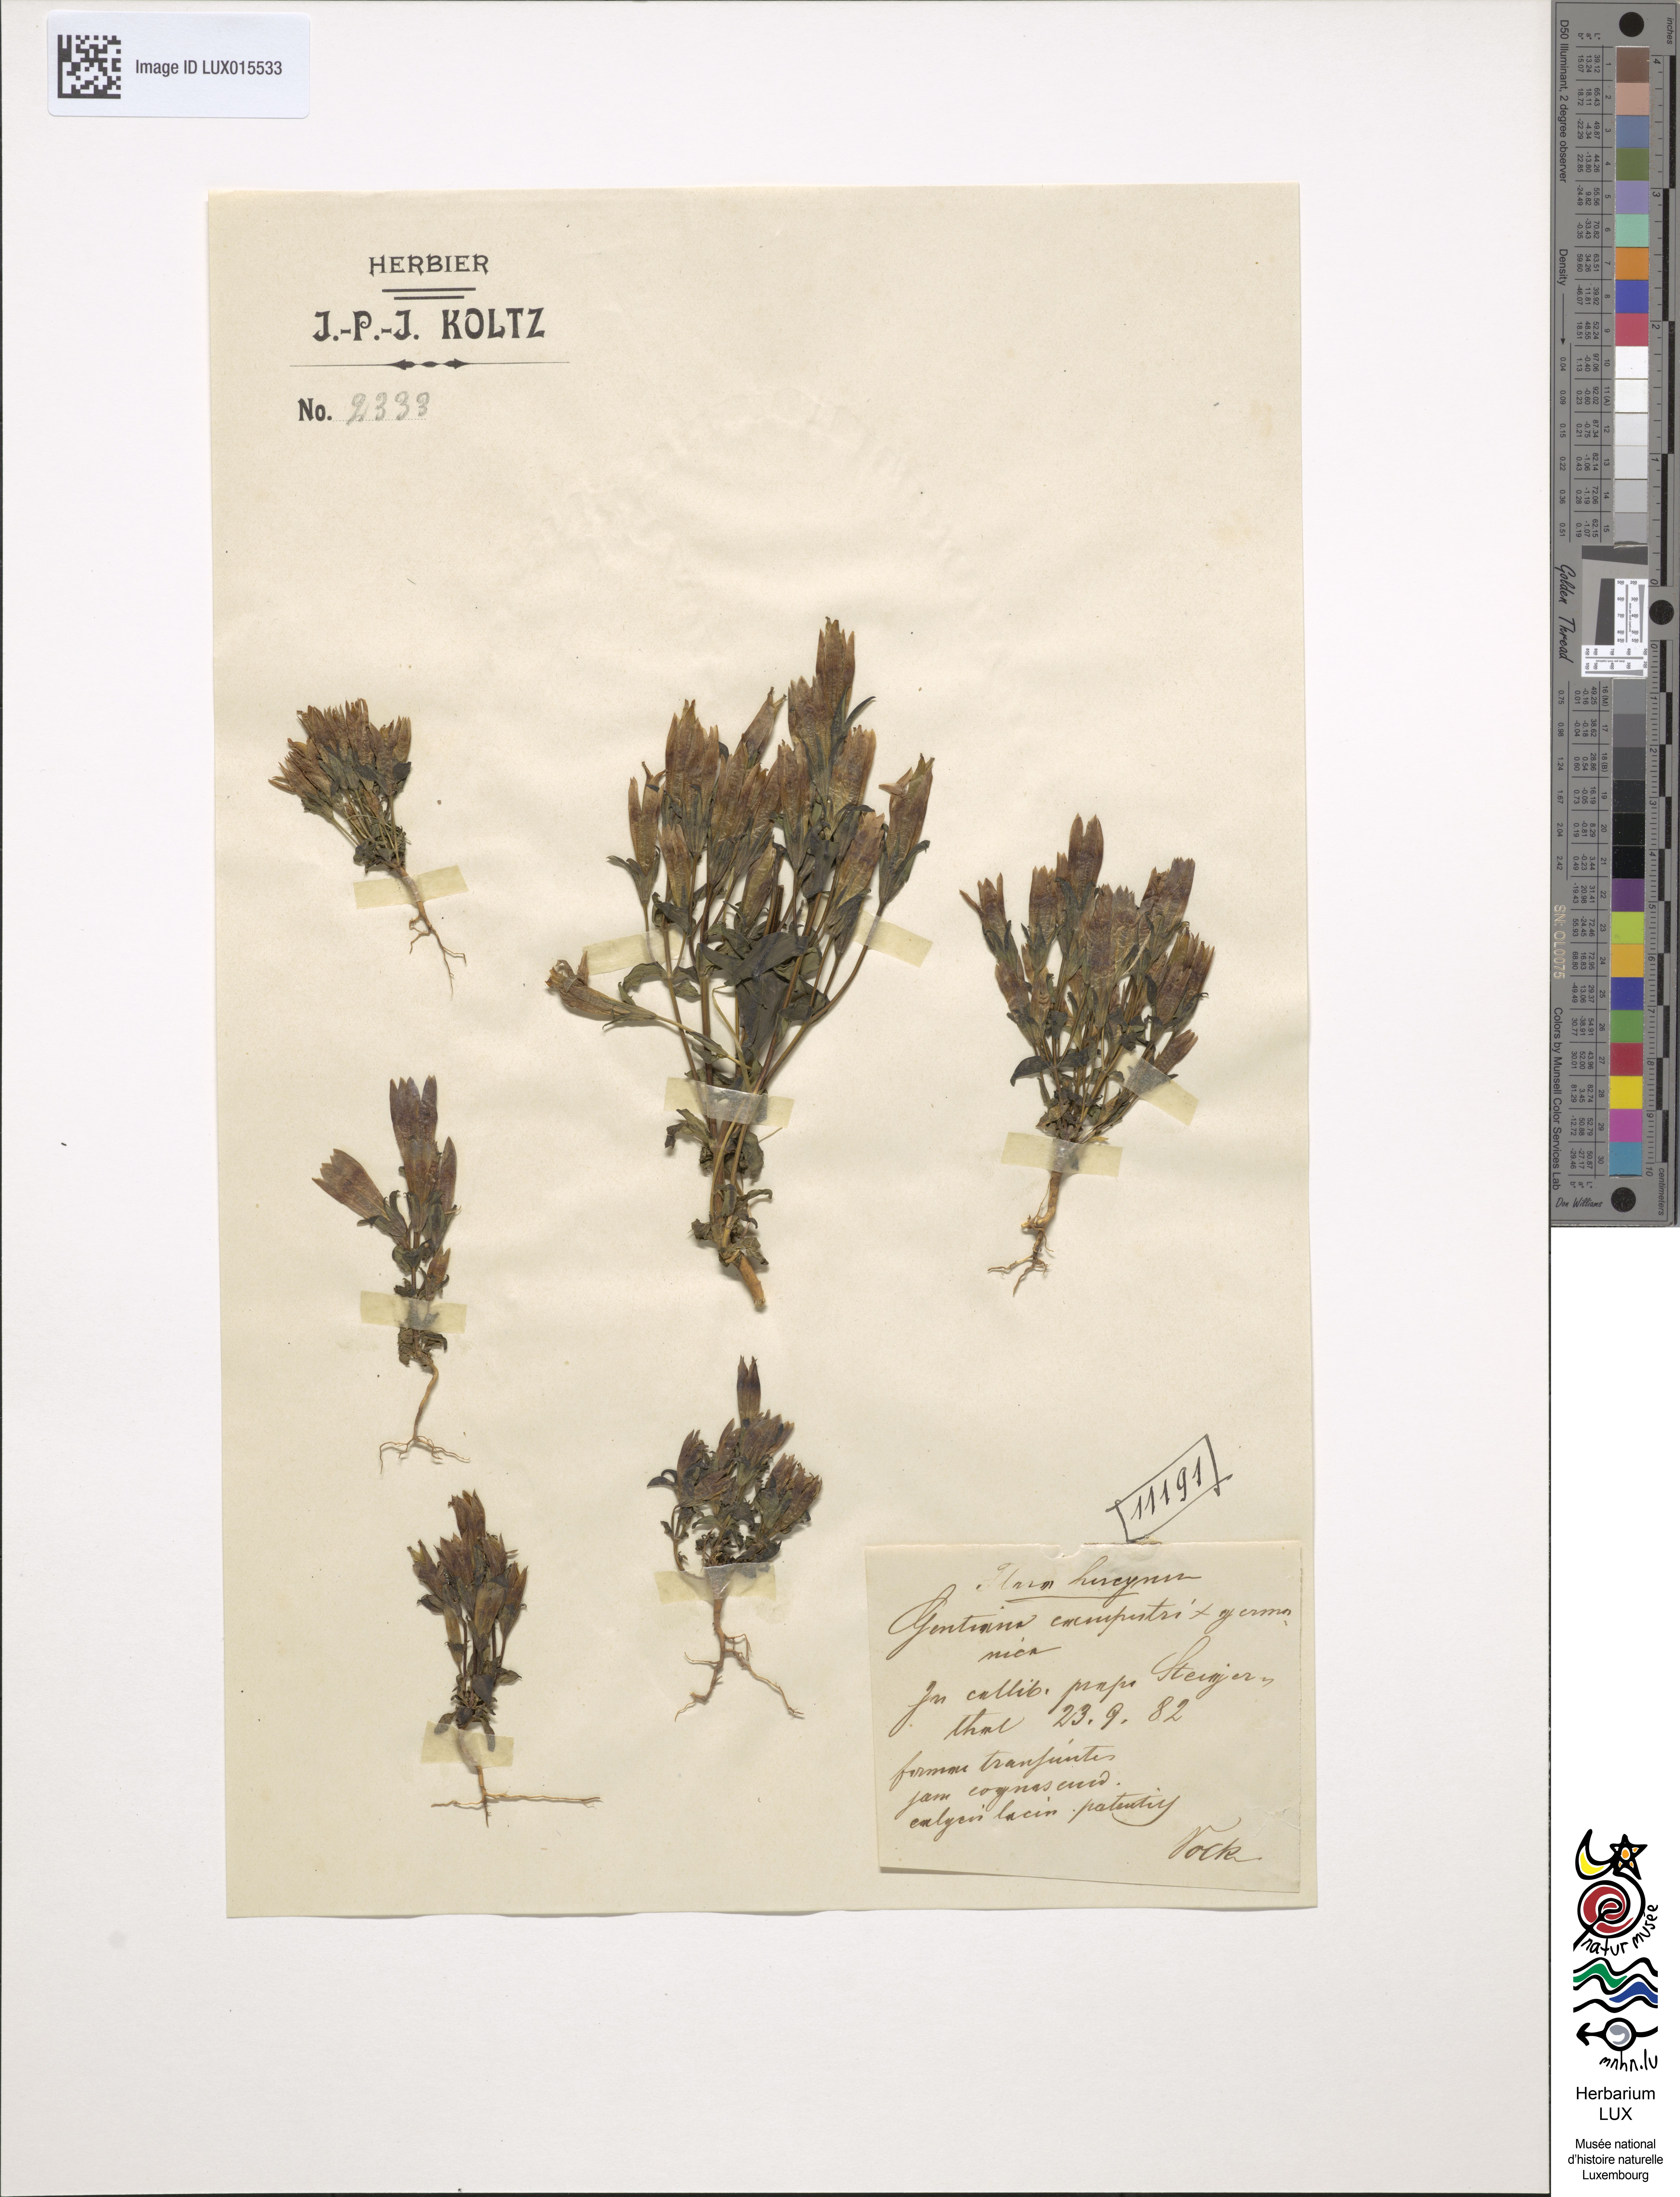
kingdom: Plantae
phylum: Tracheophyta
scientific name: Tracheophyta
